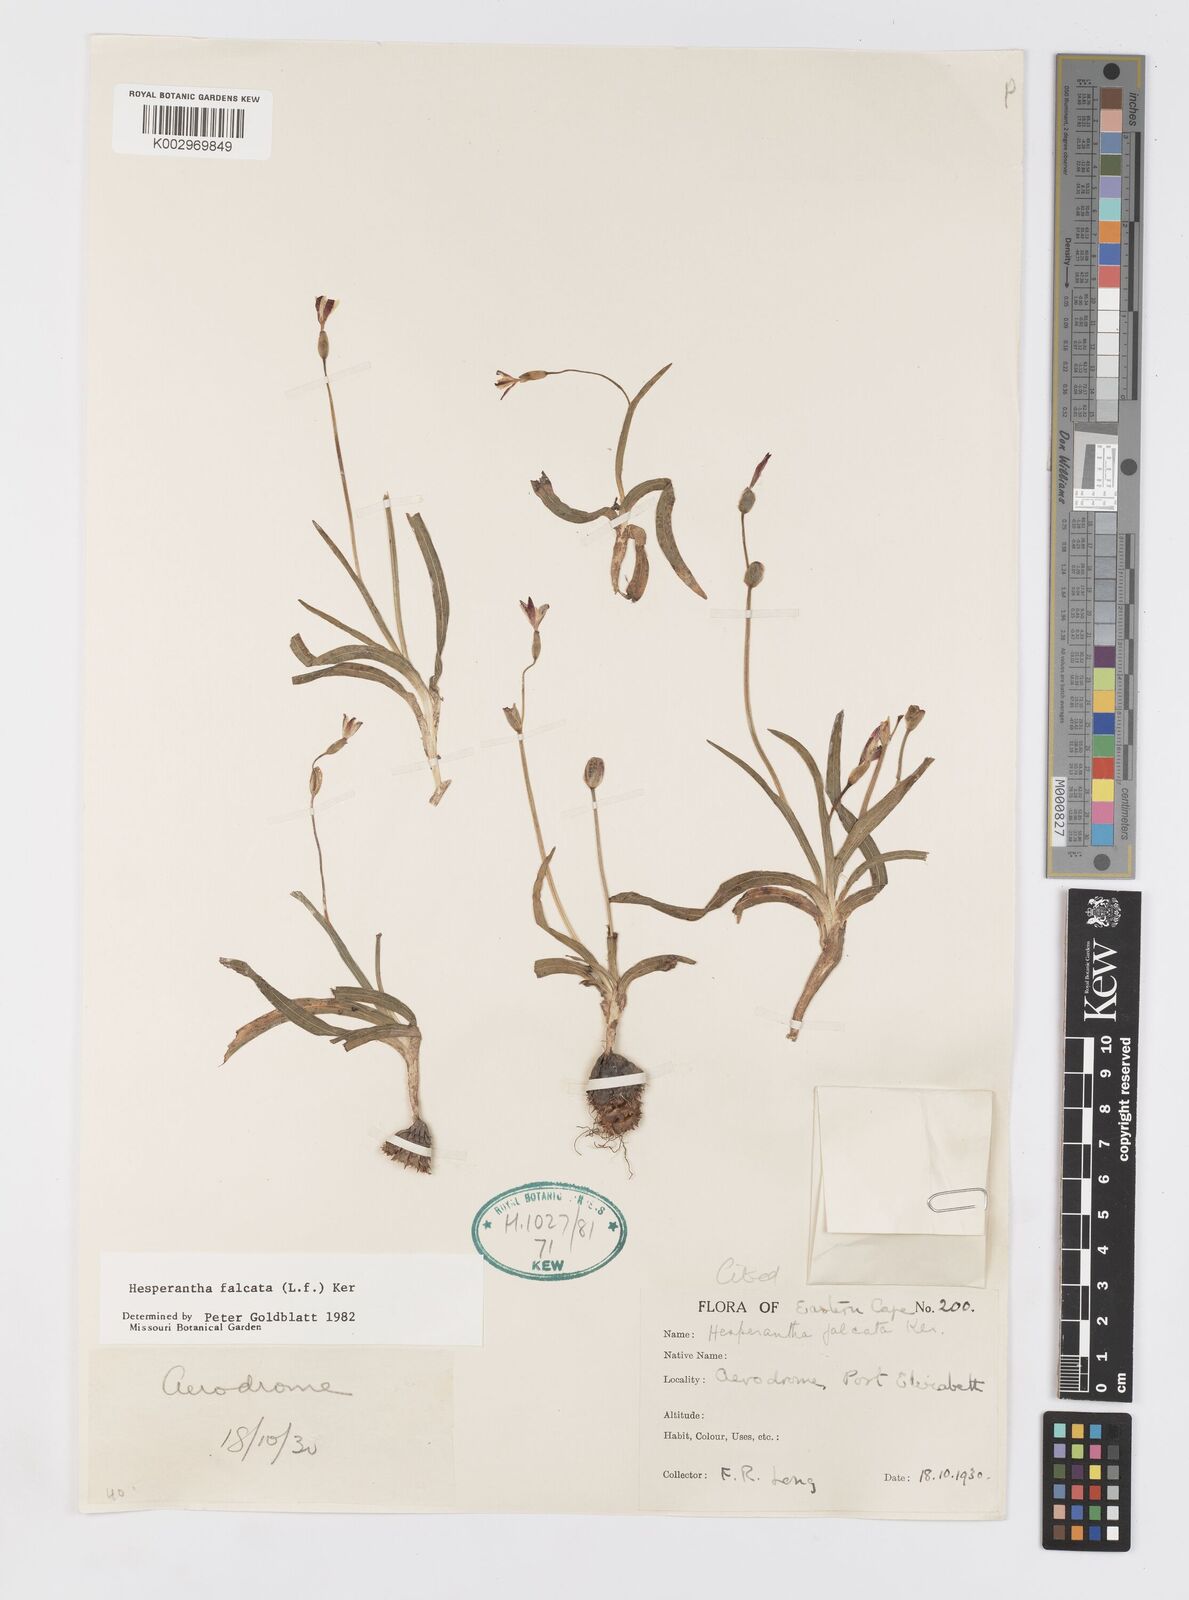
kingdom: Plantae
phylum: Tracheophyta
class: Liliopsida
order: Asparagales
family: Iridaceae
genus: Hesperantha
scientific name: Hesperantha falcata
